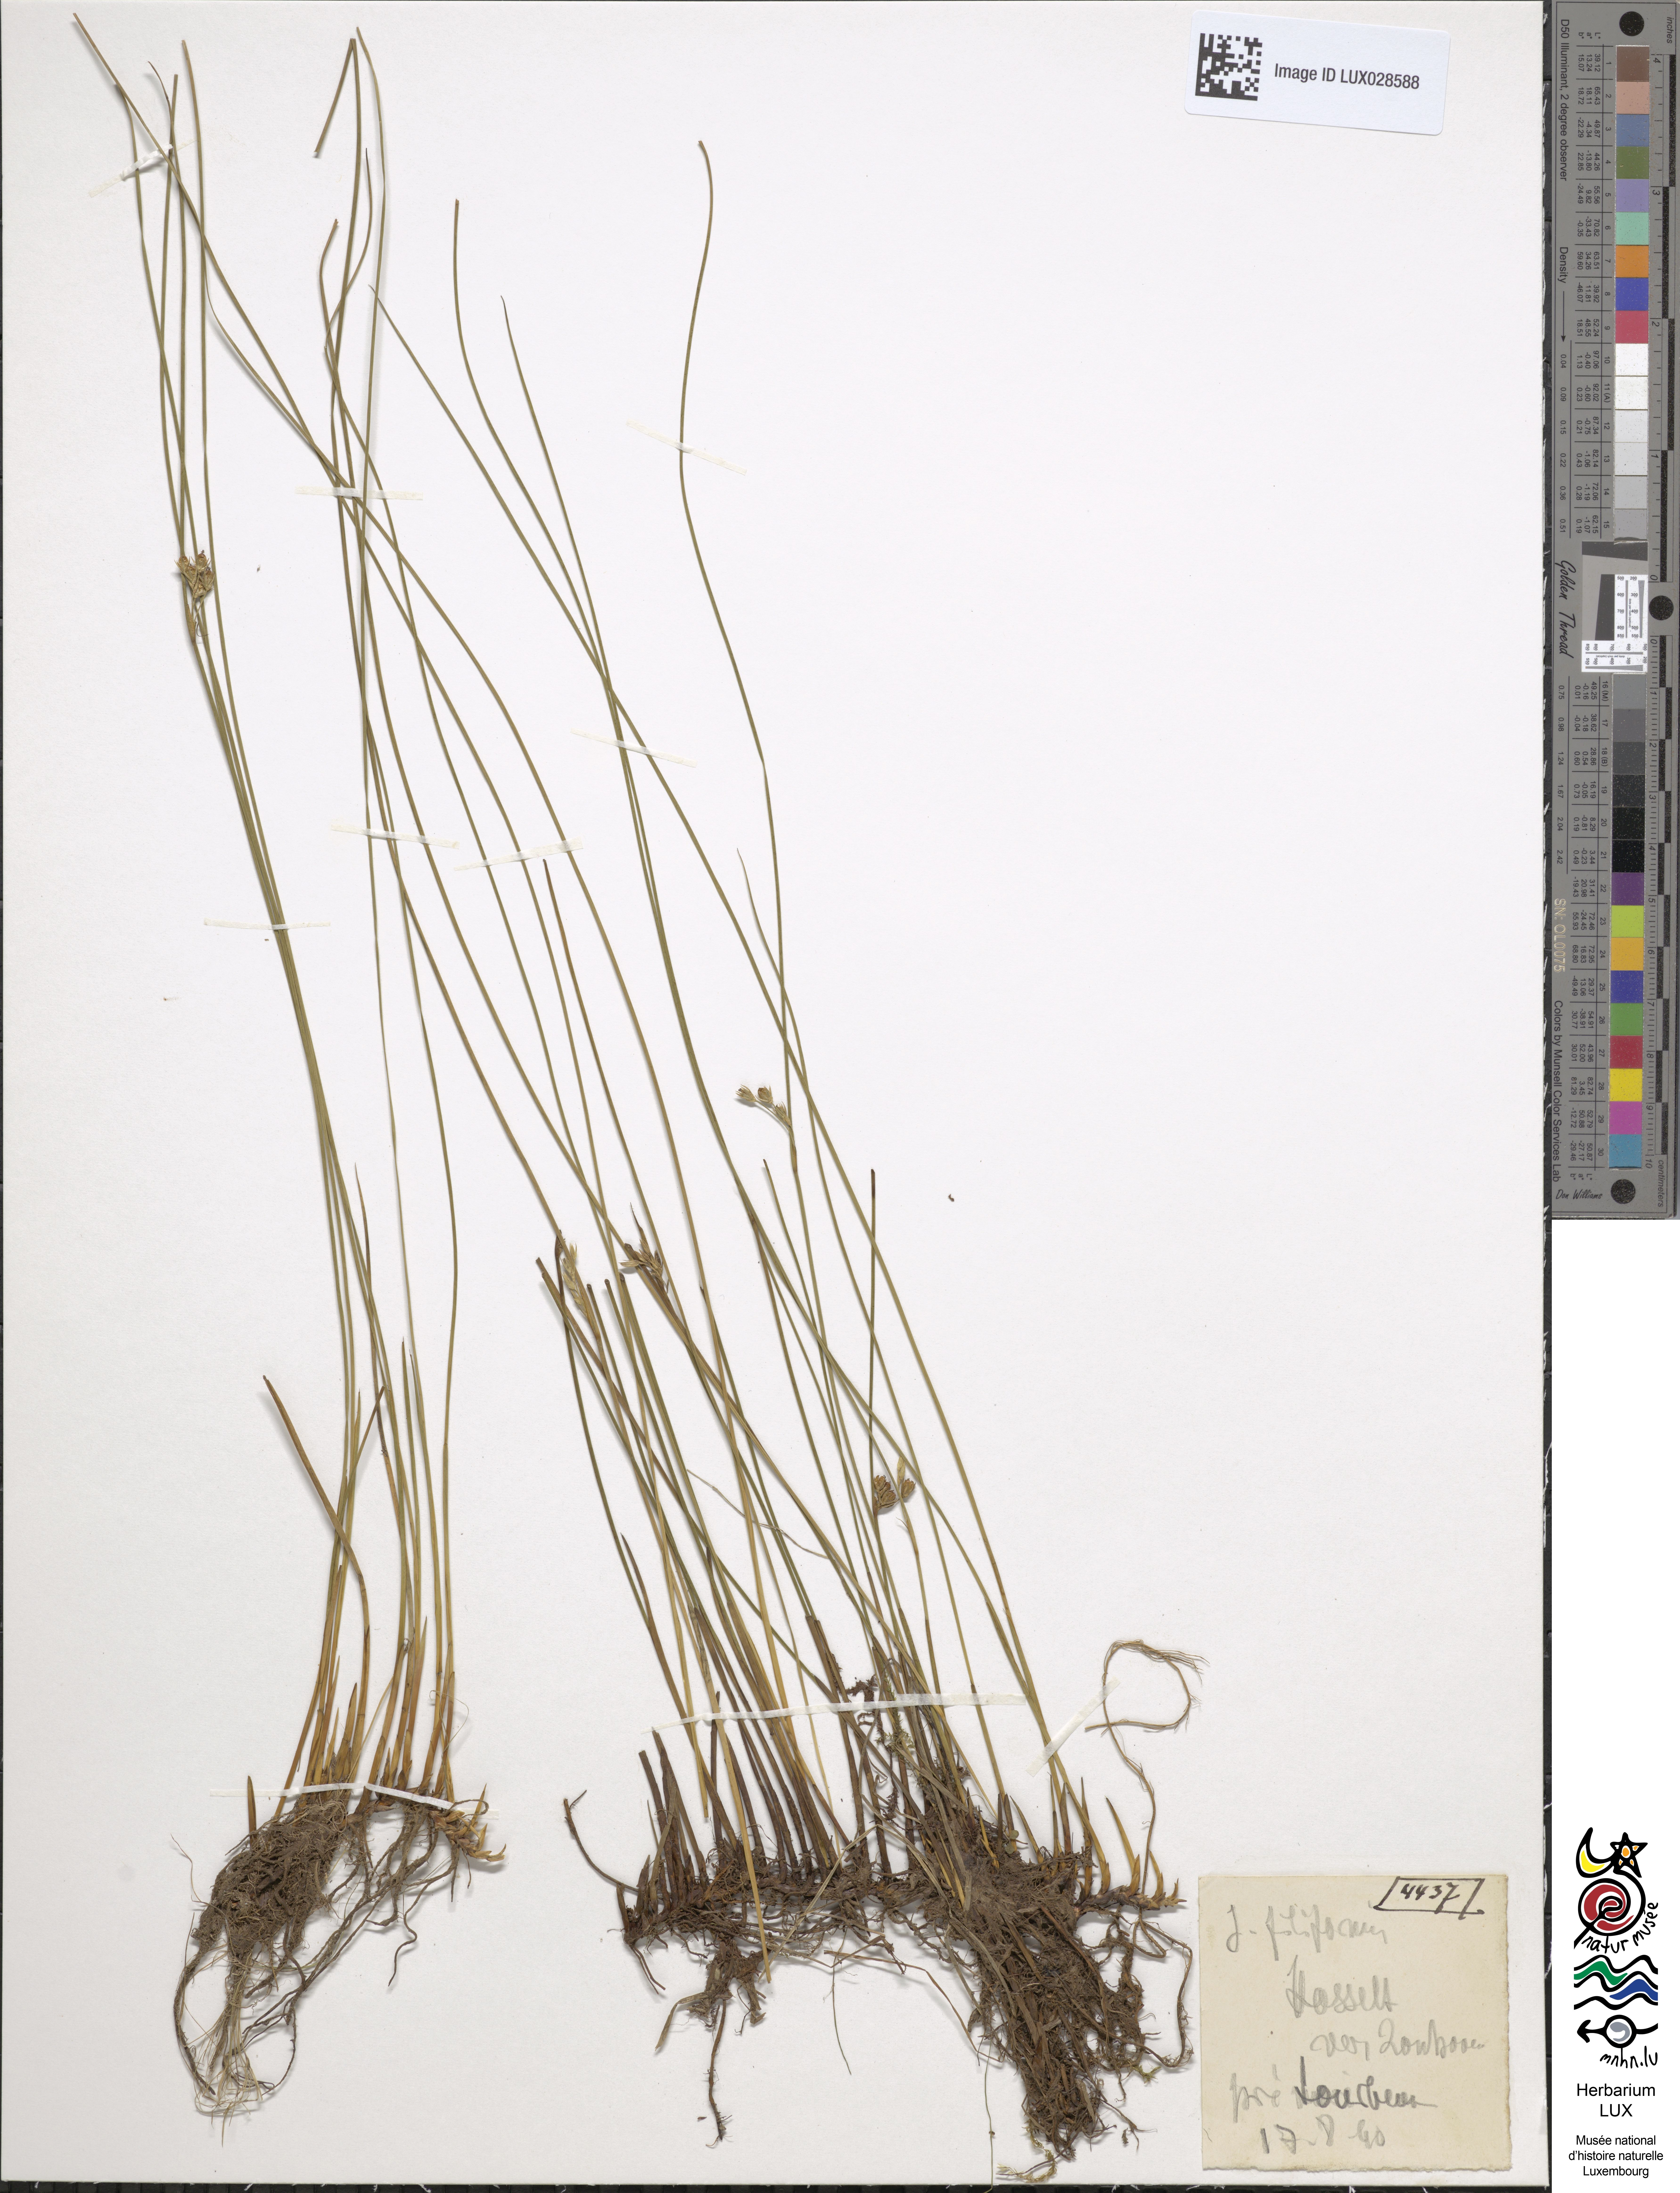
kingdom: Plantae
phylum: Tracheophyta
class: Liliopsida
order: Poales
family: Juncaceae
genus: Juncus
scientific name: Juncus filiformis
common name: Thread rush
